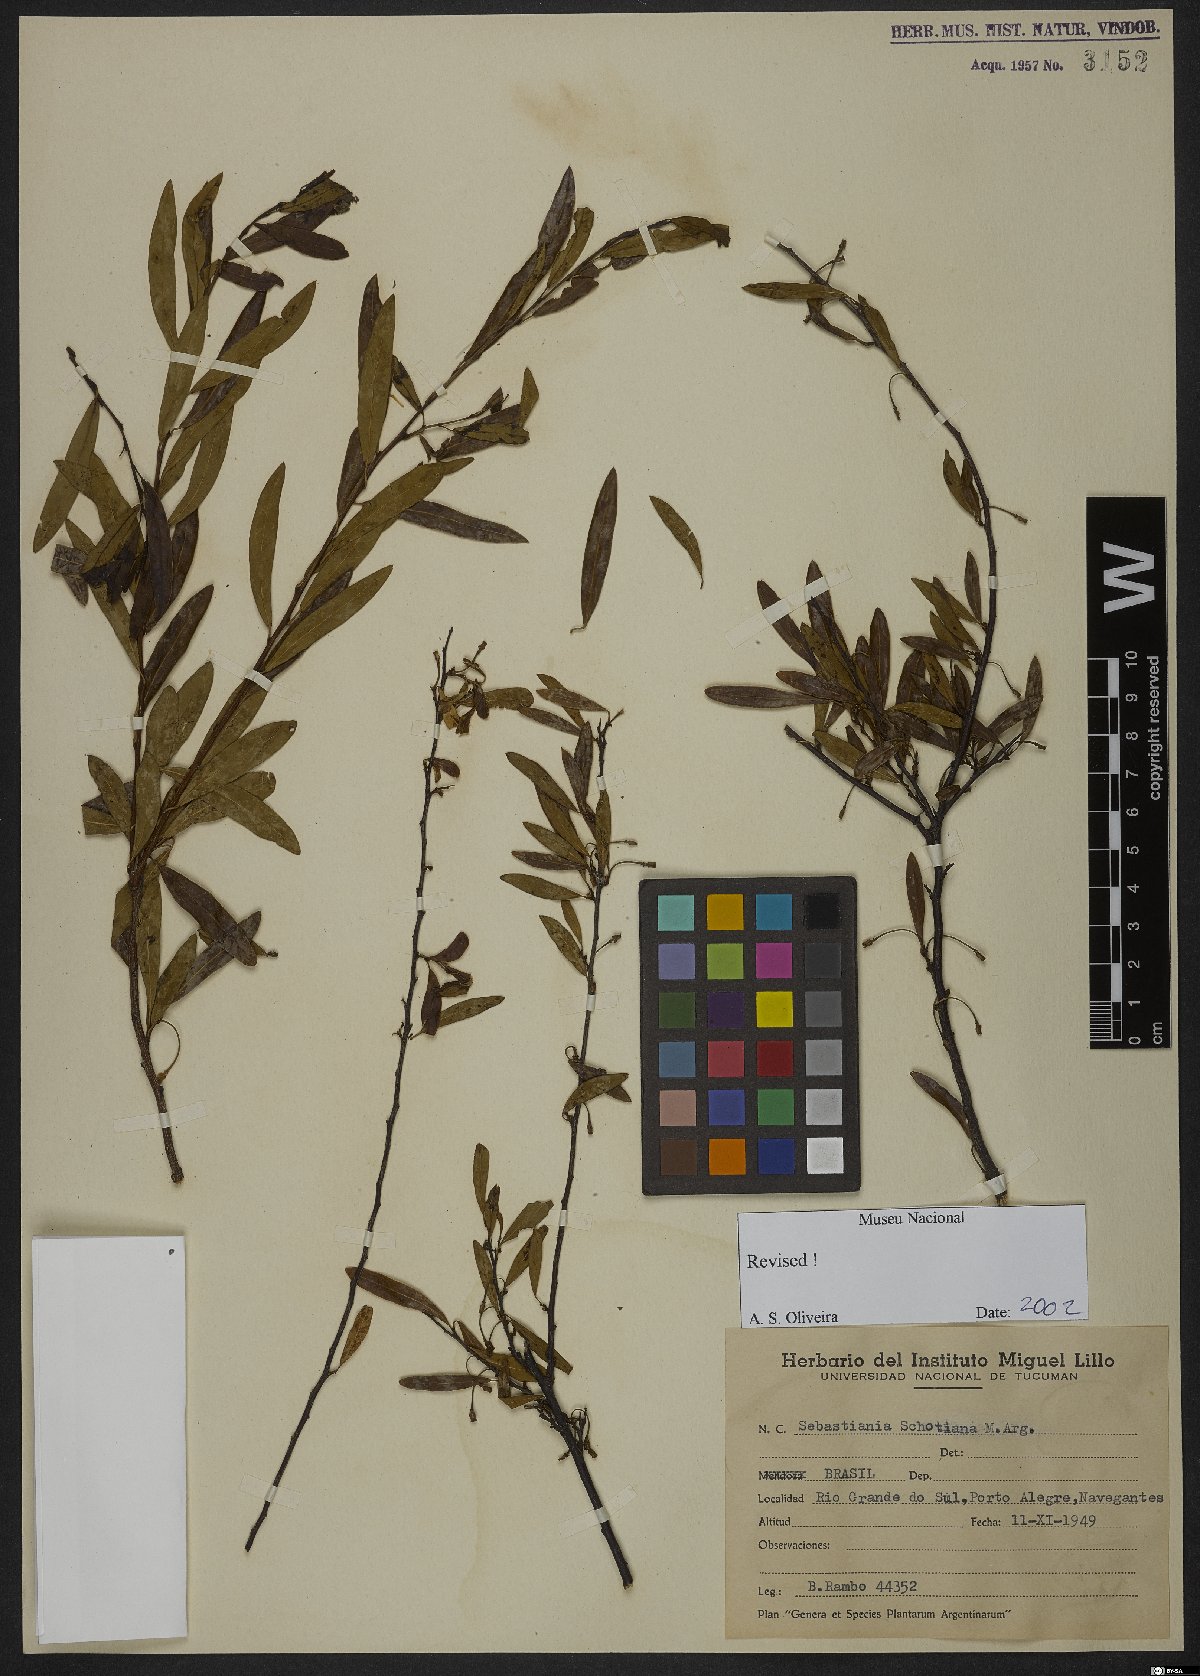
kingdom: Plantae
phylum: Tracheophyta
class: Magnoliopsida
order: Malpighiales
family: Euphorbiaceae
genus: Sebastiania
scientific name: Sebastiania schottiana
